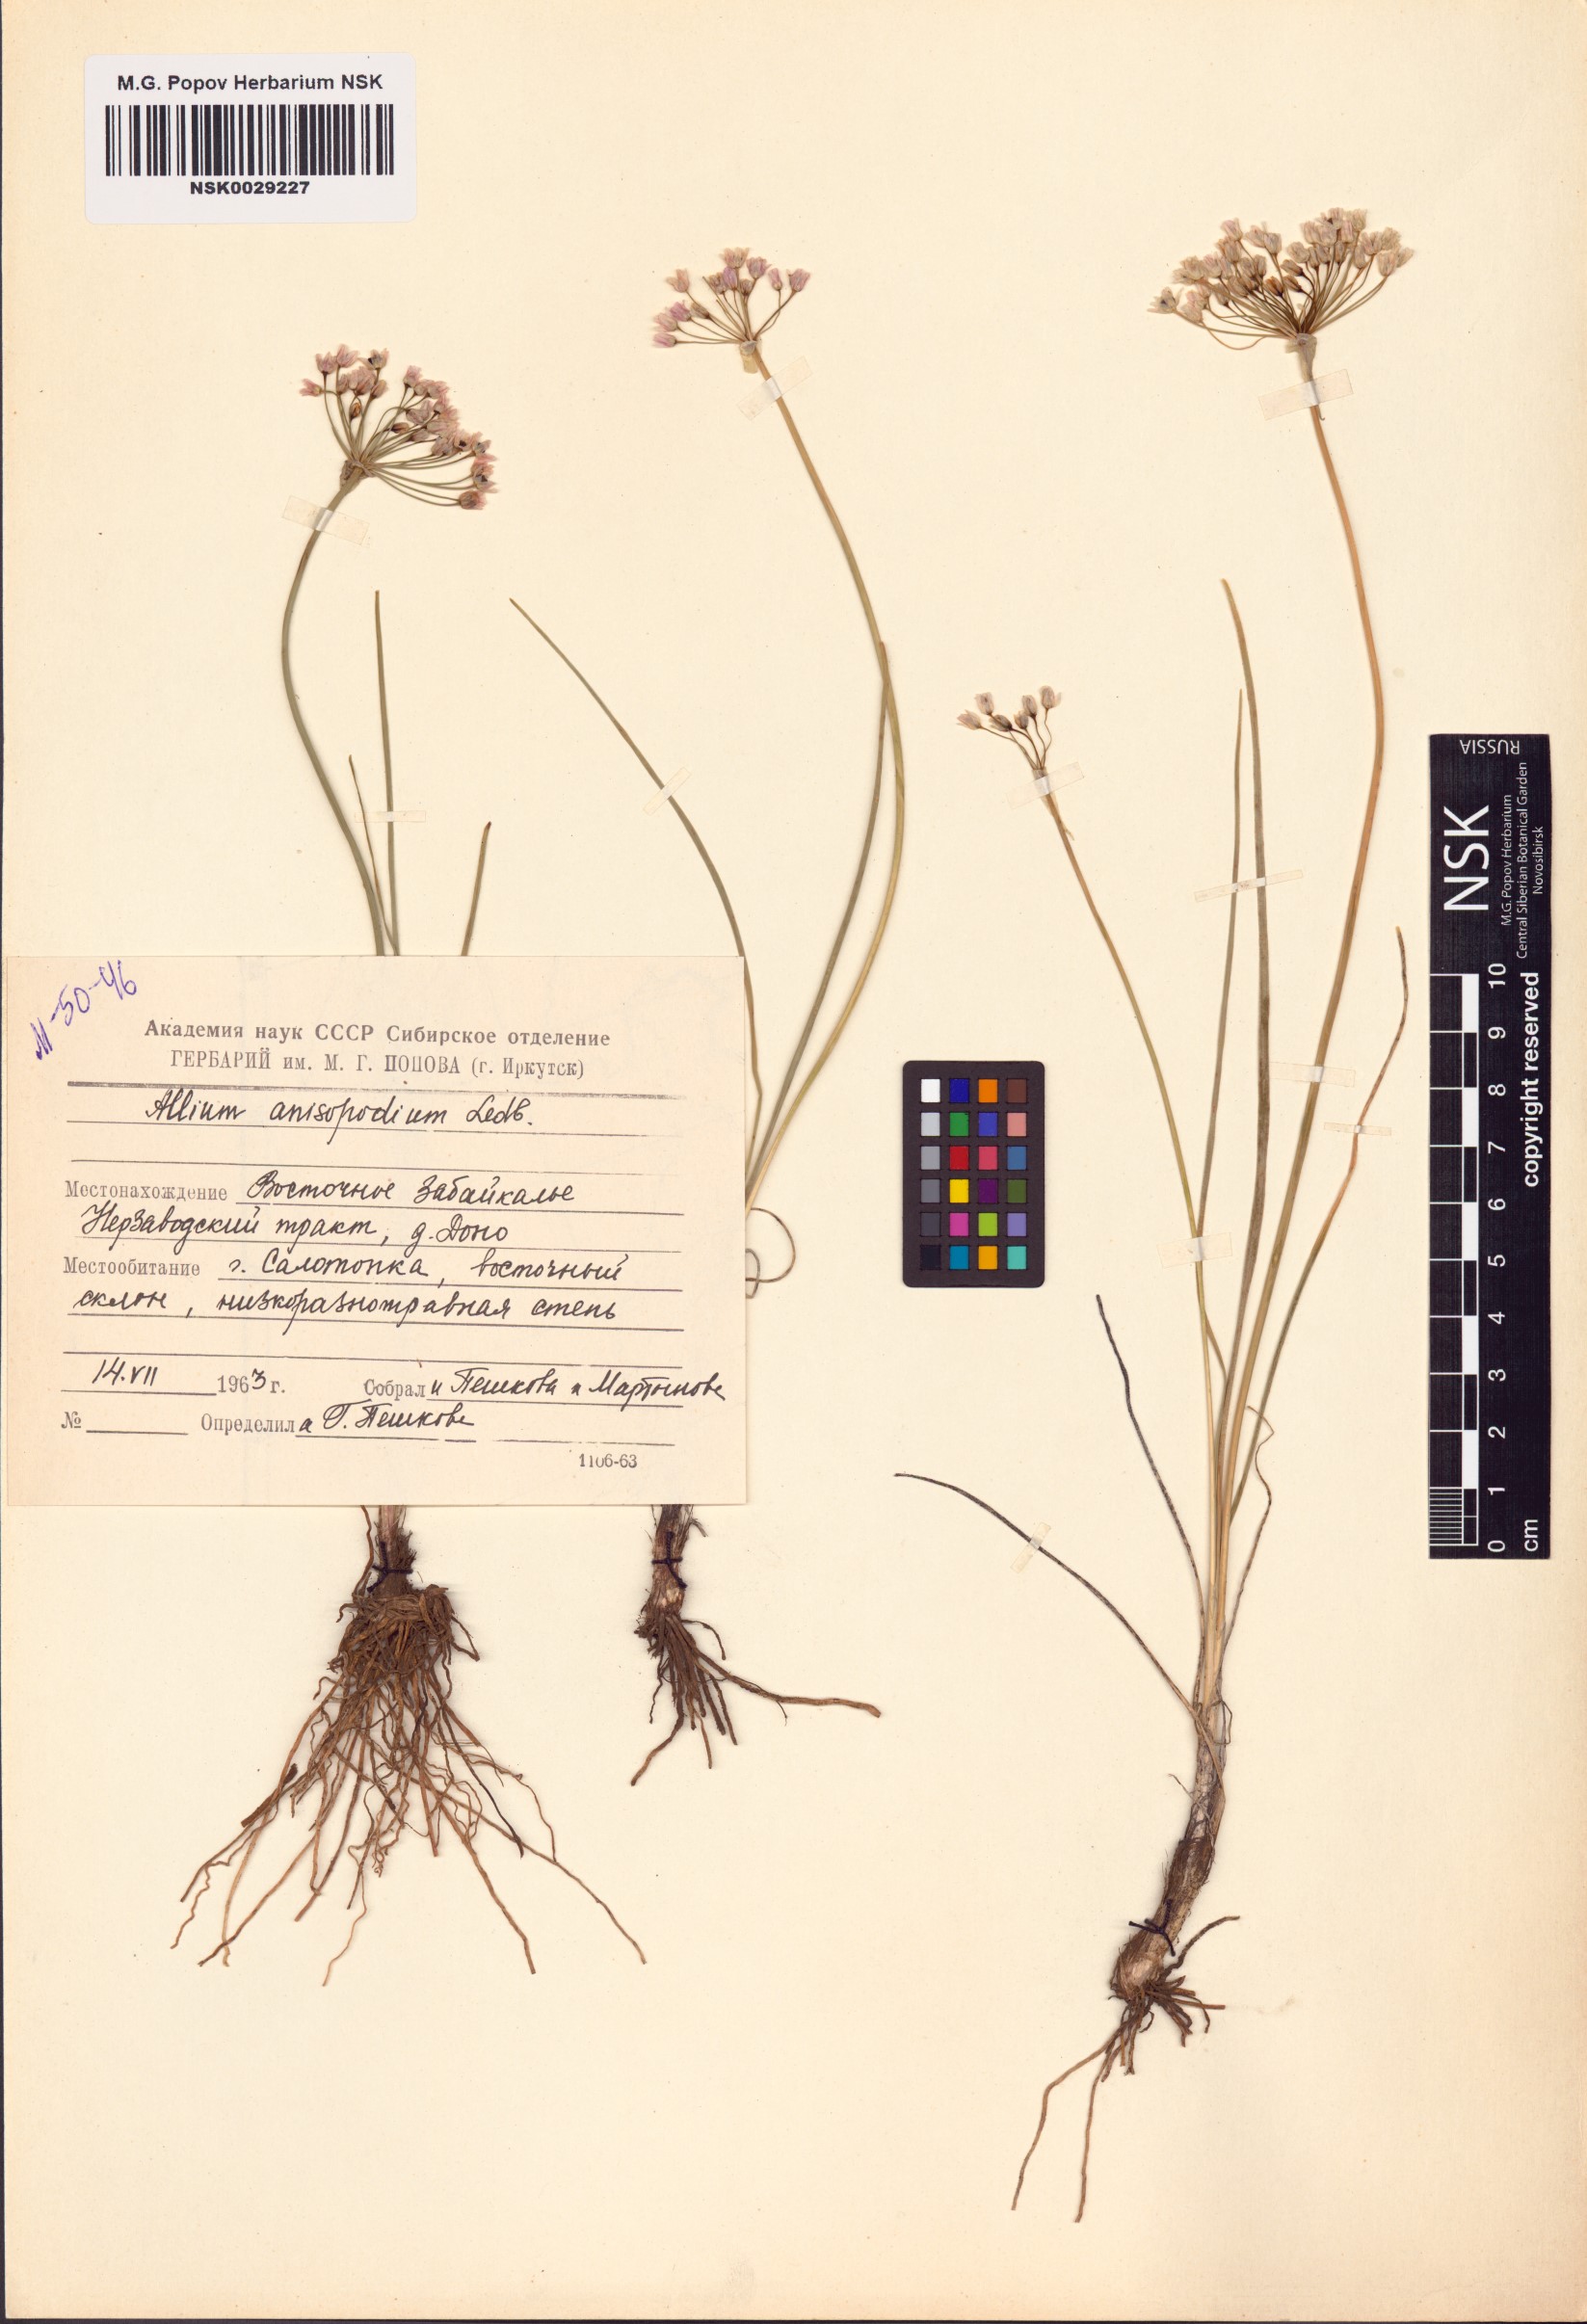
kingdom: Plantae
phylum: Tracheophyta
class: Liliopsida
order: Asparagales
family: Amaryllidaceae
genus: Allium
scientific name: Allium anisopodium
